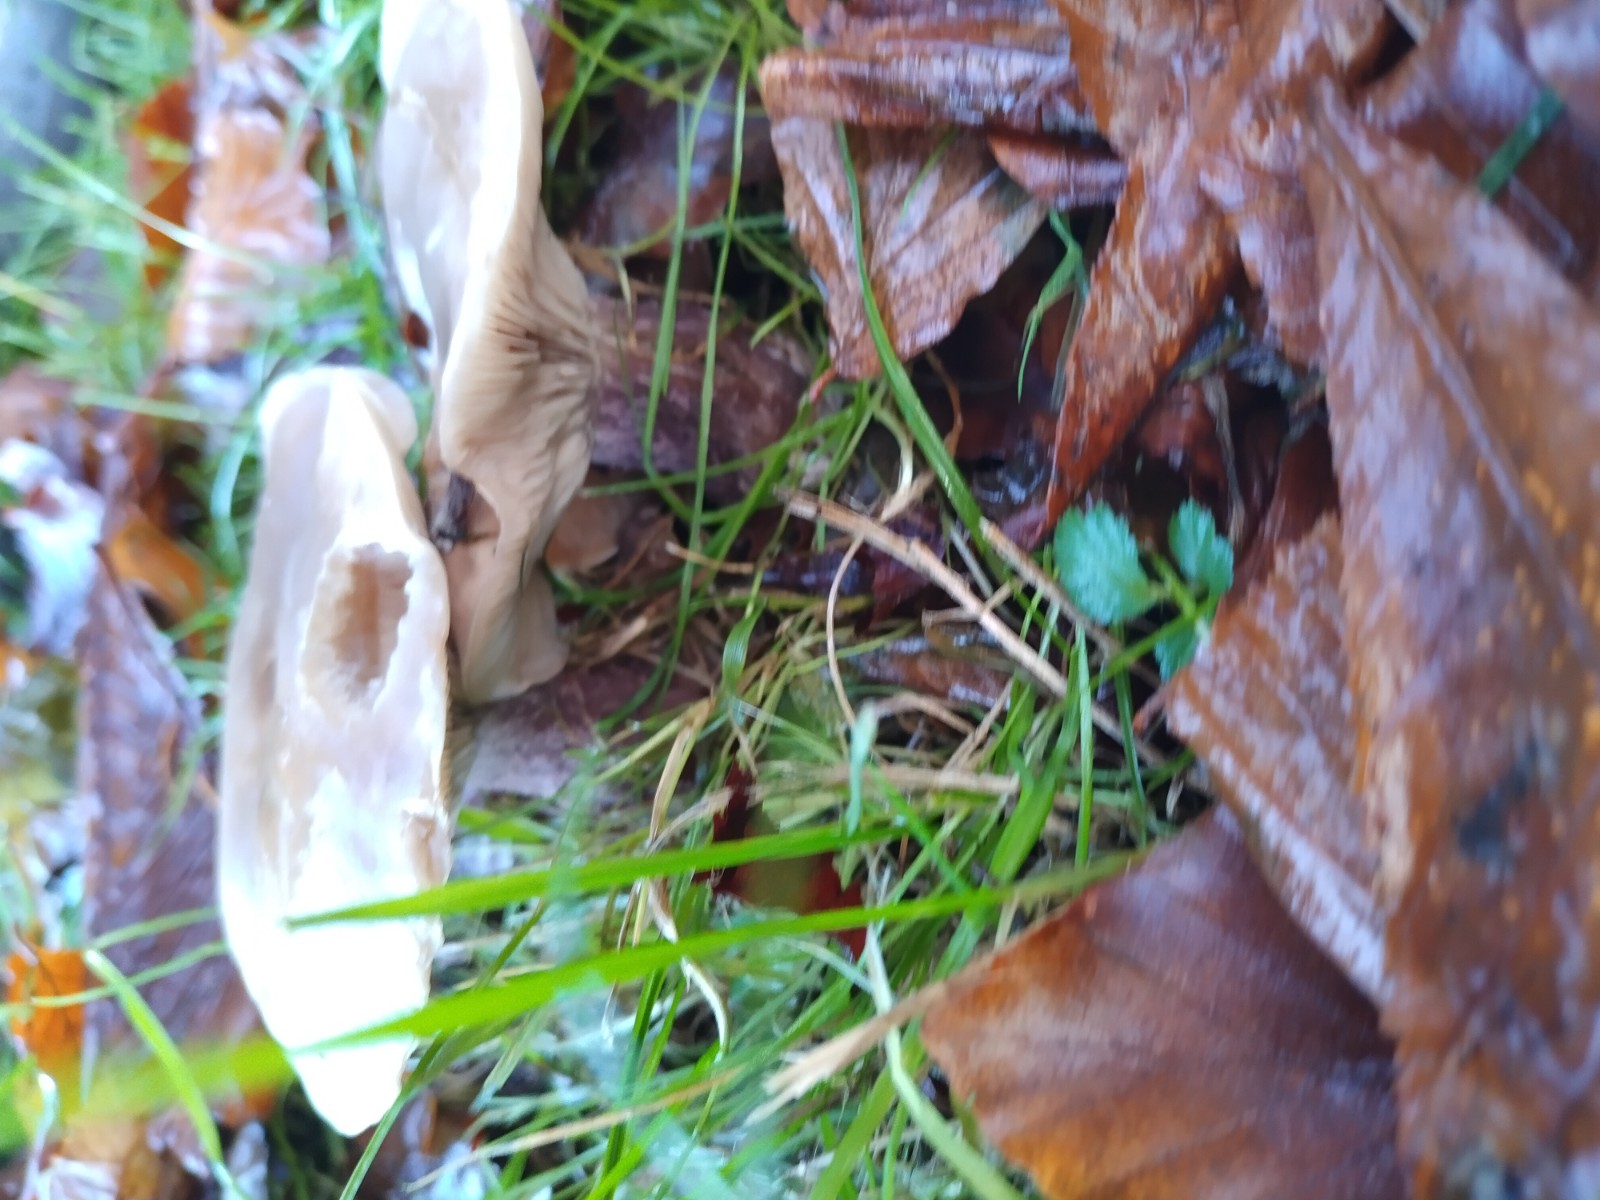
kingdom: Fungi
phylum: Basidiomycota
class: Agaricomycetes
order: Agaricales
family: Tricholomataceae
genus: Lepista
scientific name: Lepista personata
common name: bleg hekseringshat
